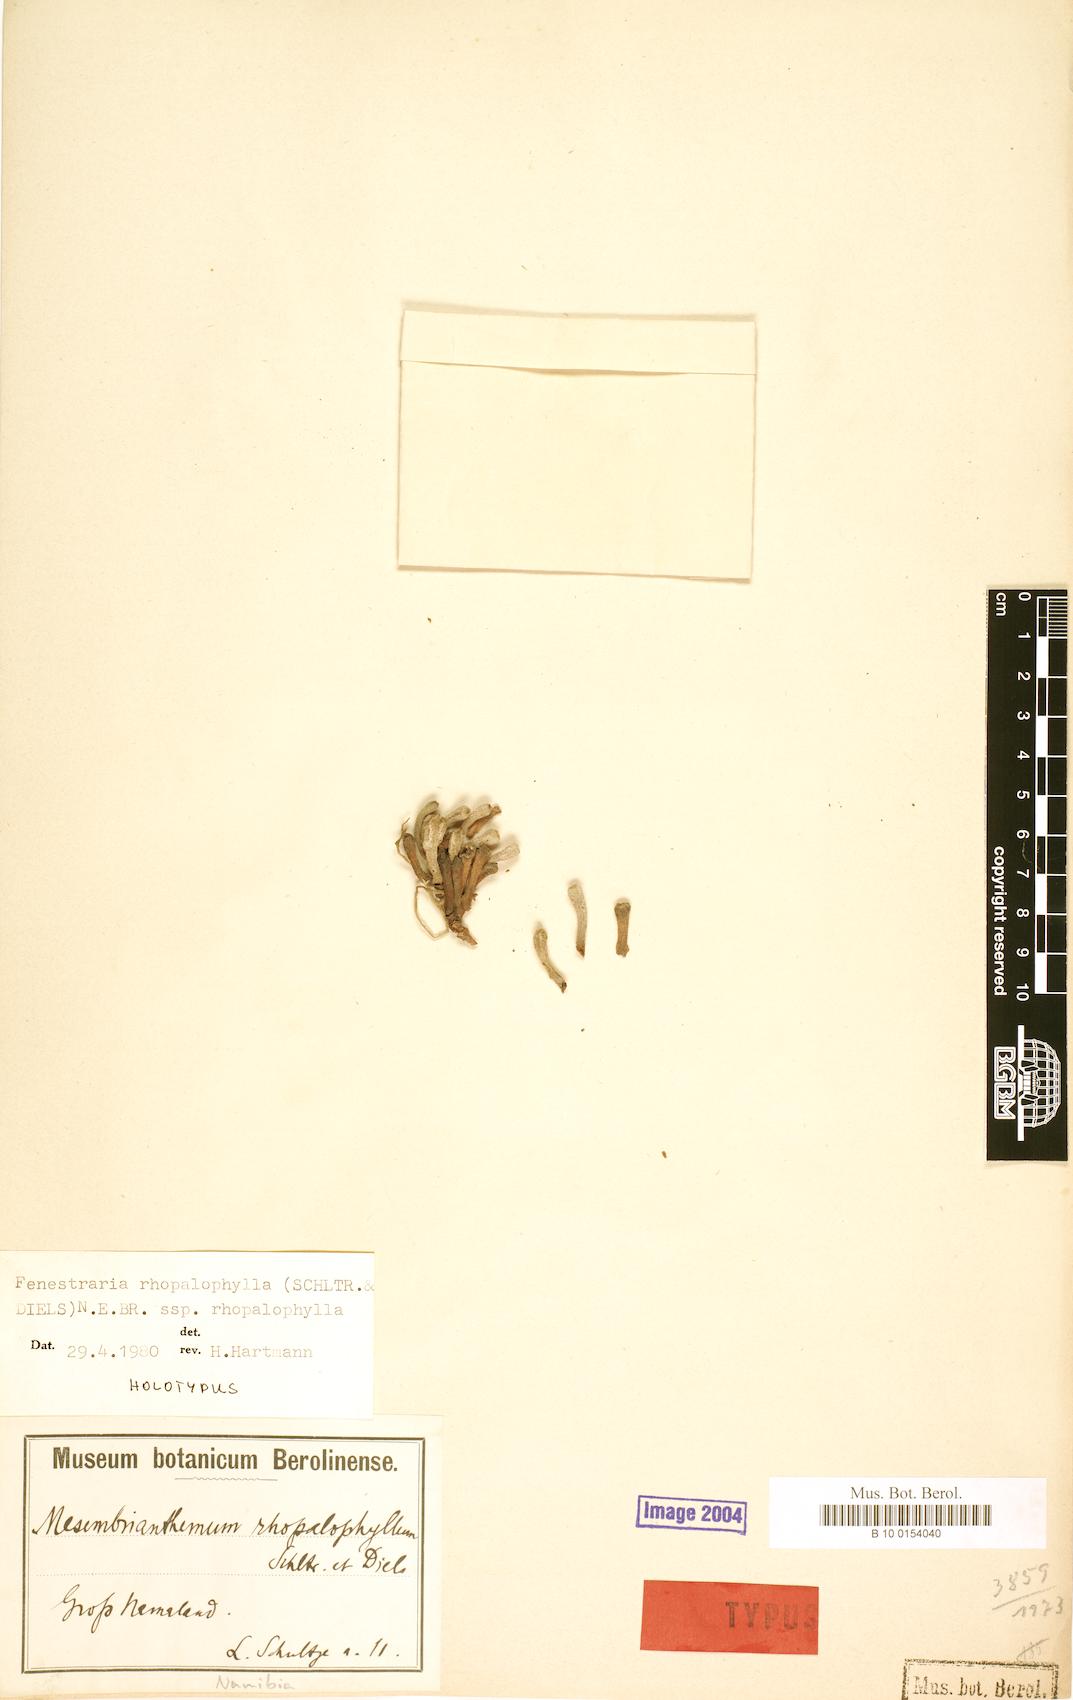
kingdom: Plantae
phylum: Tracheophyta
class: Magnoliopsida
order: Caryophyllales
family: Aizoaceae
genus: Fenestraria
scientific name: Fenestraria rhopalophylla
